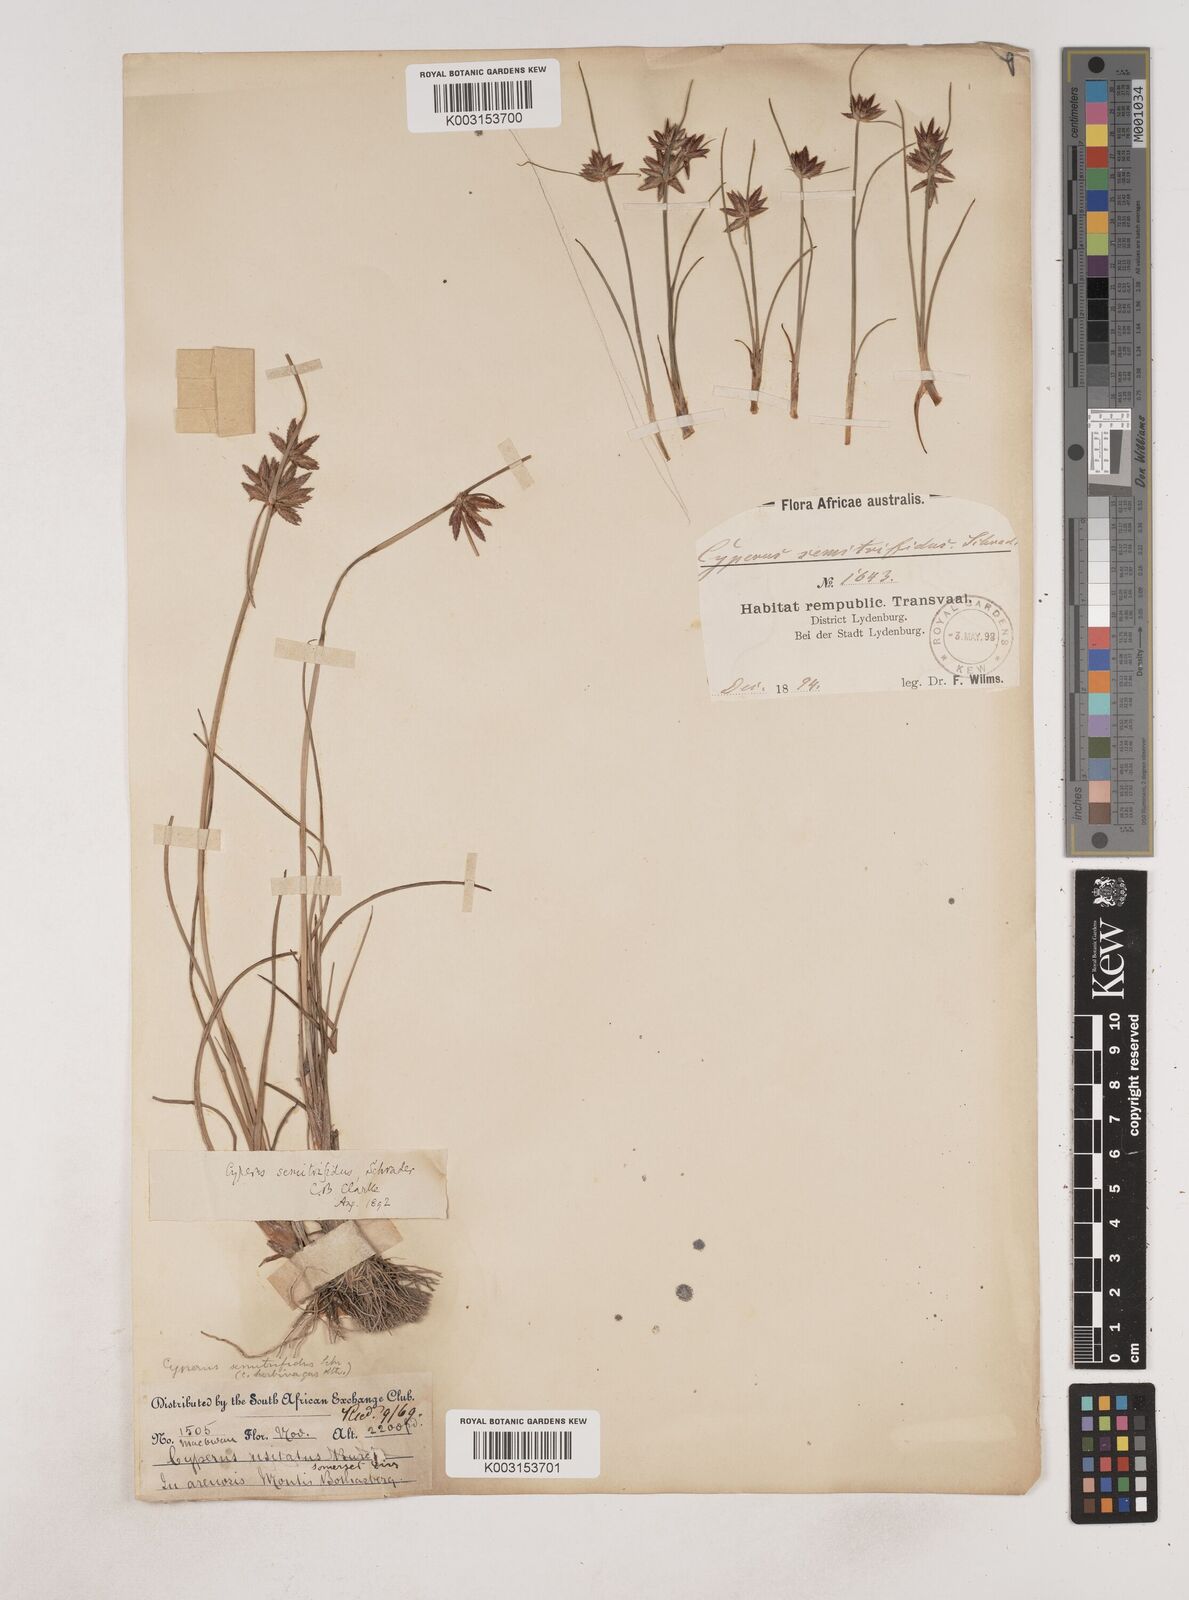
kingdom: Plantae
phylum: Tracheophyta
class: Liliopsida
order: Poales
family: Cyperaceae
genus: Cyperus
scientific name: Cyperus semitrifidus
